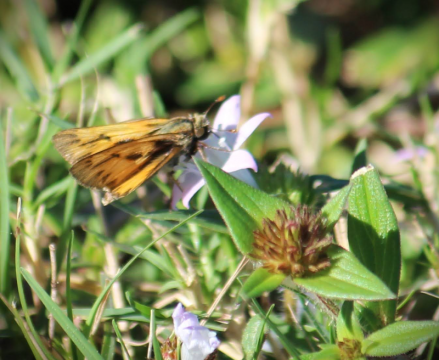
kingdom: Animalia
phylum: Arthropoda
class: Insecta
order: Lepidoptera
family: Hesperiidae
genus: Hylephila
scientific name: Hylephila phyleus
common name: Fiery Skipper
